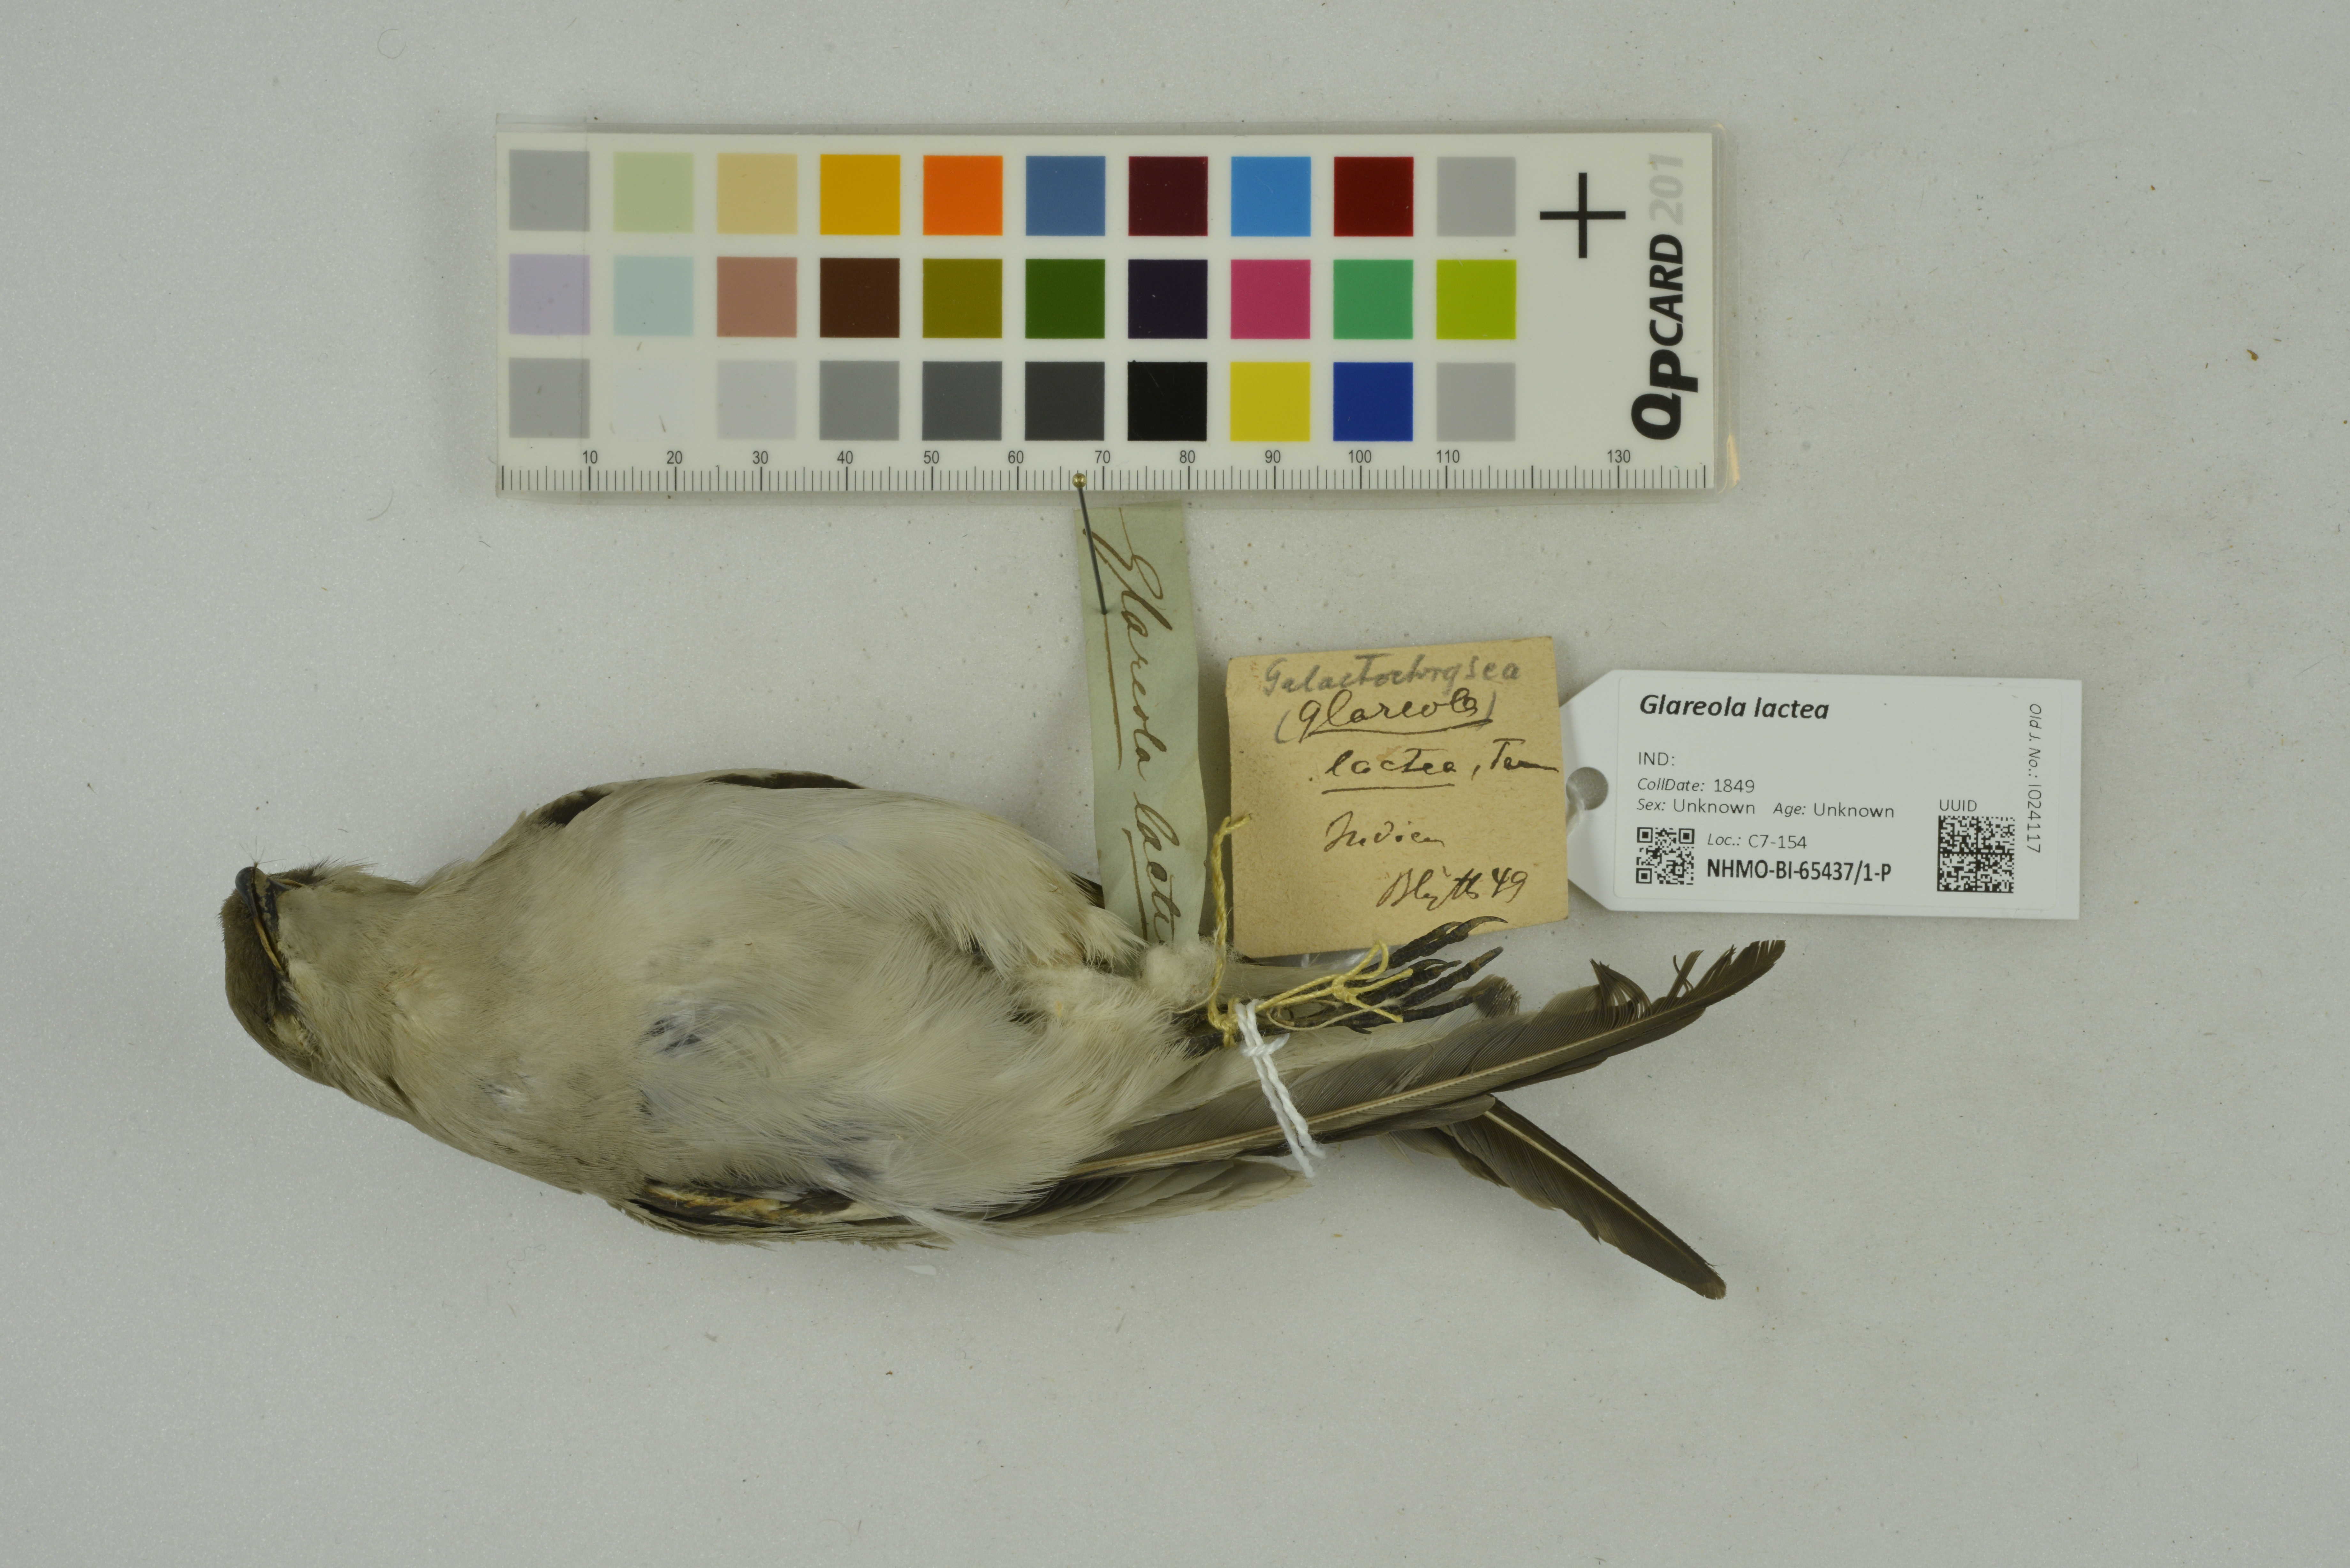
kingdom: Animalia
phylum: Chordata
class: Aves
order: Charadriiformes
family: Glareolidae
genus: Glareola
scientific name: Glareola lactea
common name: Small pratincole
